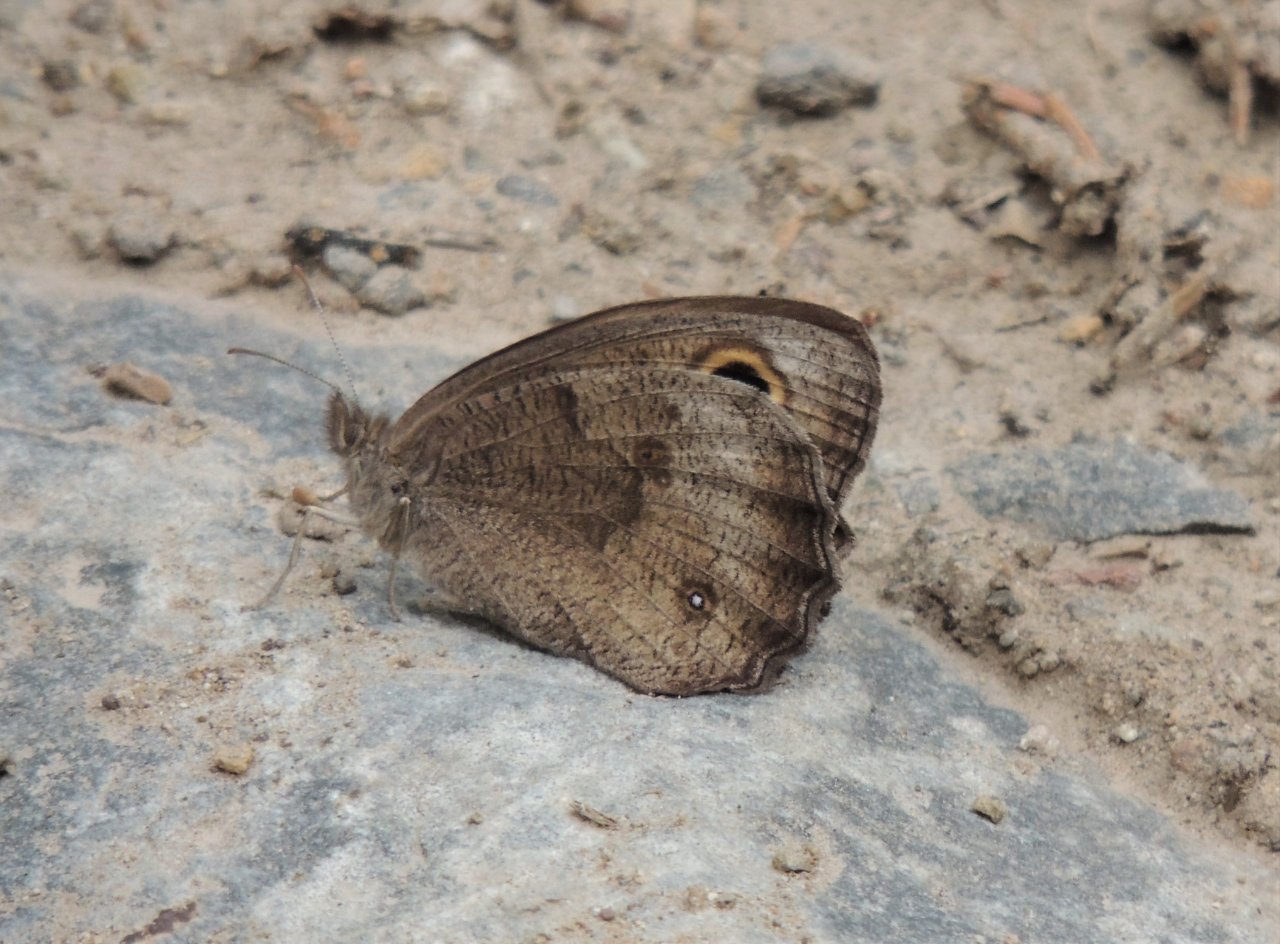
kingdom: Animalia
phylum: Arthropoda
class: Insecta
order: Lepidoptera
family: Nymphalidae
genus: Cercyonis
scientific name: Cercyonis pegala
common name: Common Wood-Nymph
